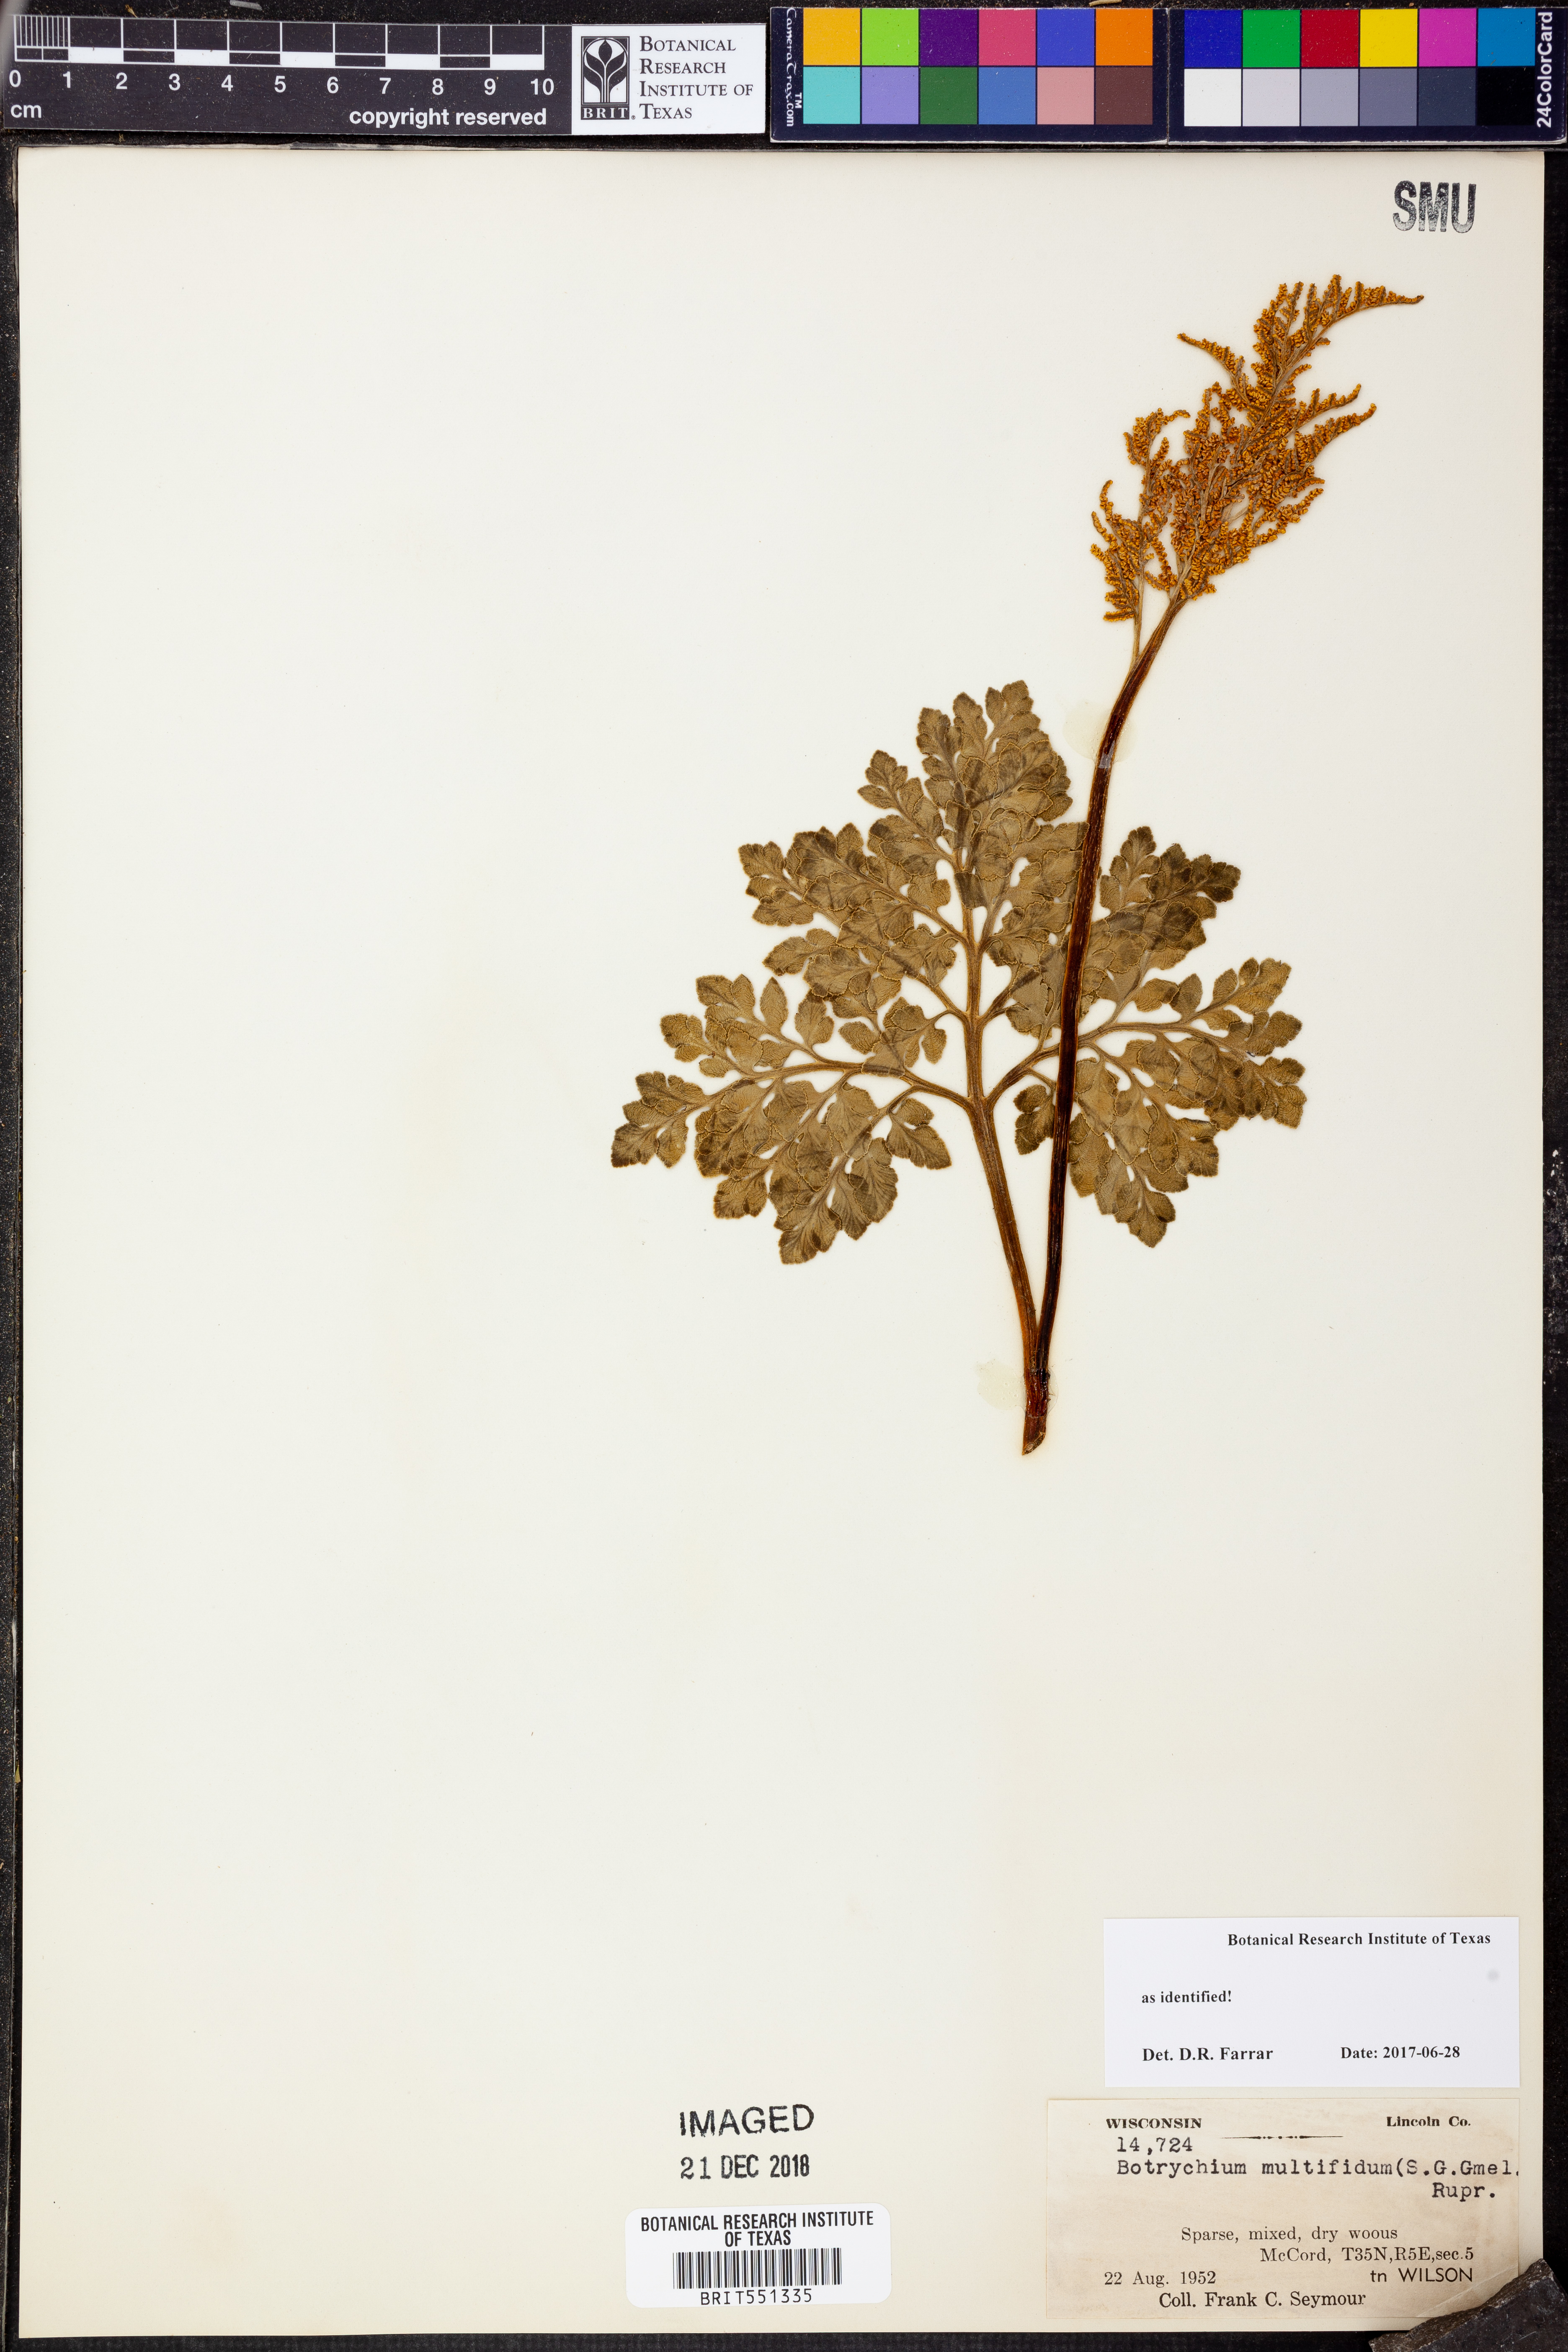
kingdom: Plantae
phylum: Tracheophyta
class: Polypodiopsida
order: Ophioglossales
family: Ophioglossaceae
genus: Sceptridium
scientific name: Sceptridium multifidum
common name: Leathery grape fern
